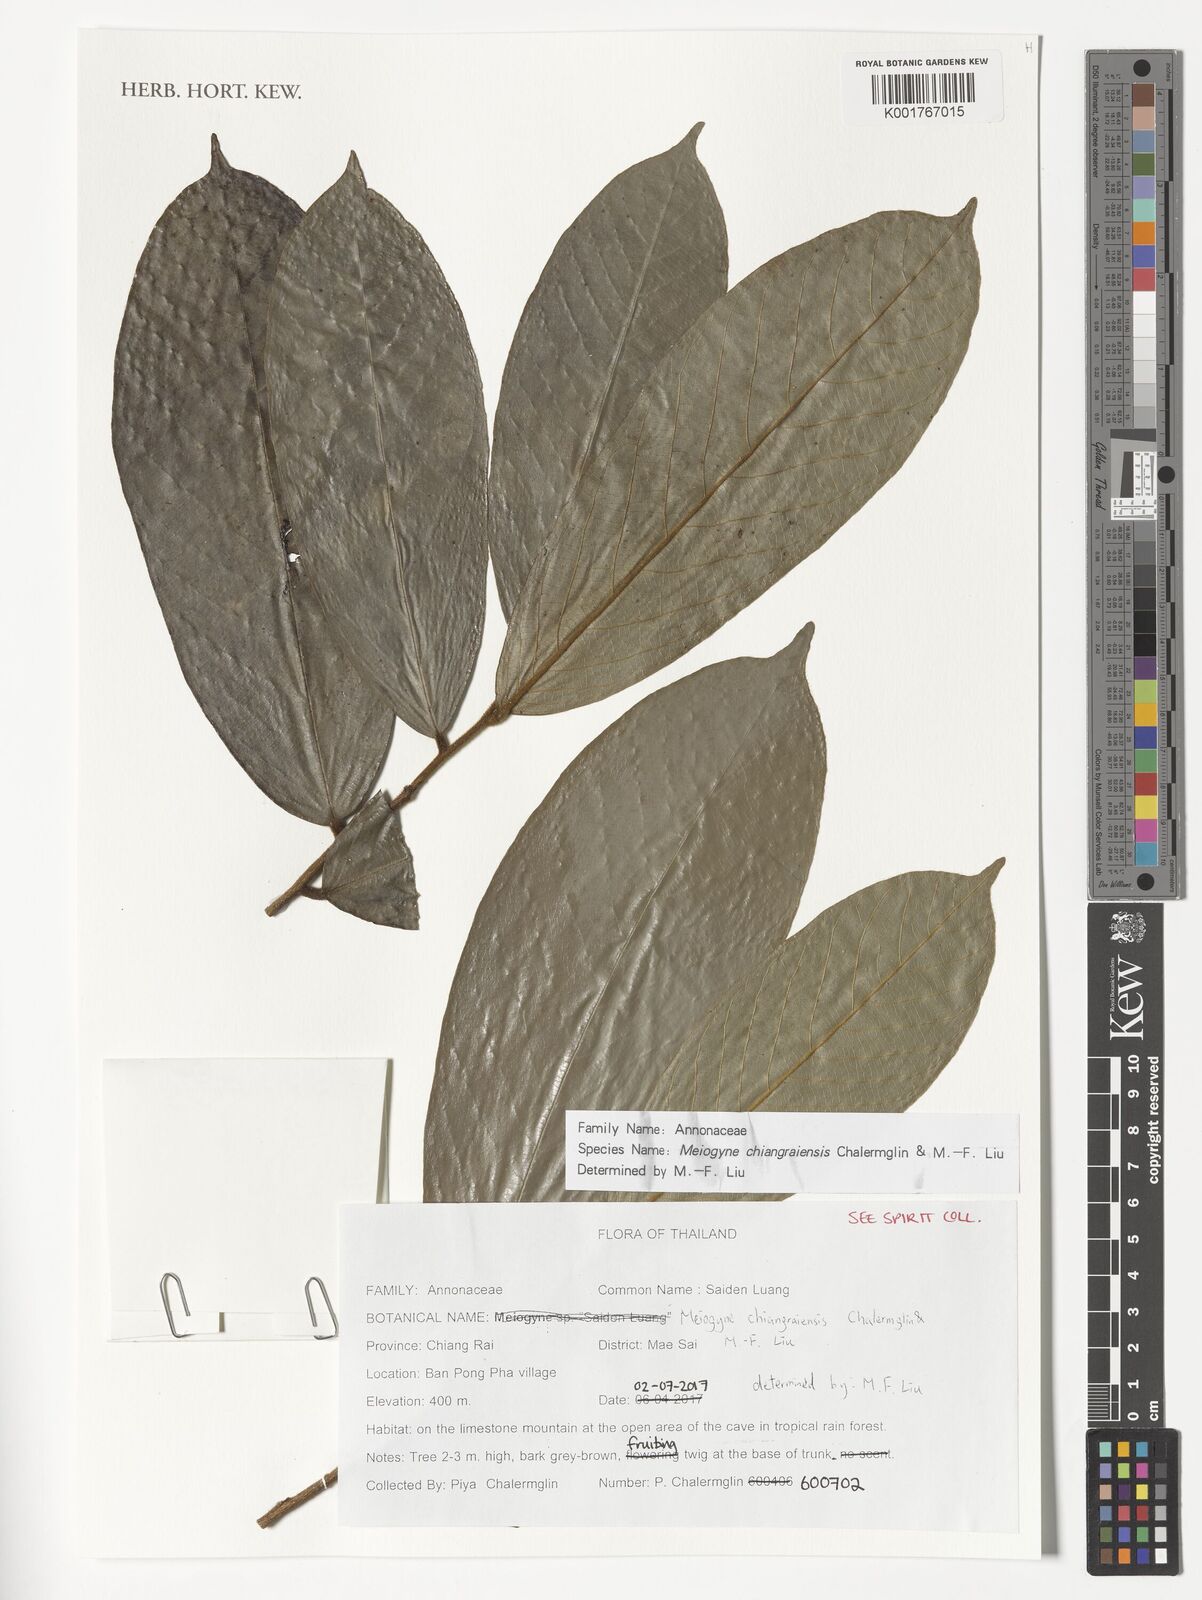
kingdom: Plantae
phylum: Tracheophyta
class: Magnoliopsida
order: Magnoliales
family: Annonaceae
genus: Meiogyne
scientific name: Meiogyne chiangraiensis
